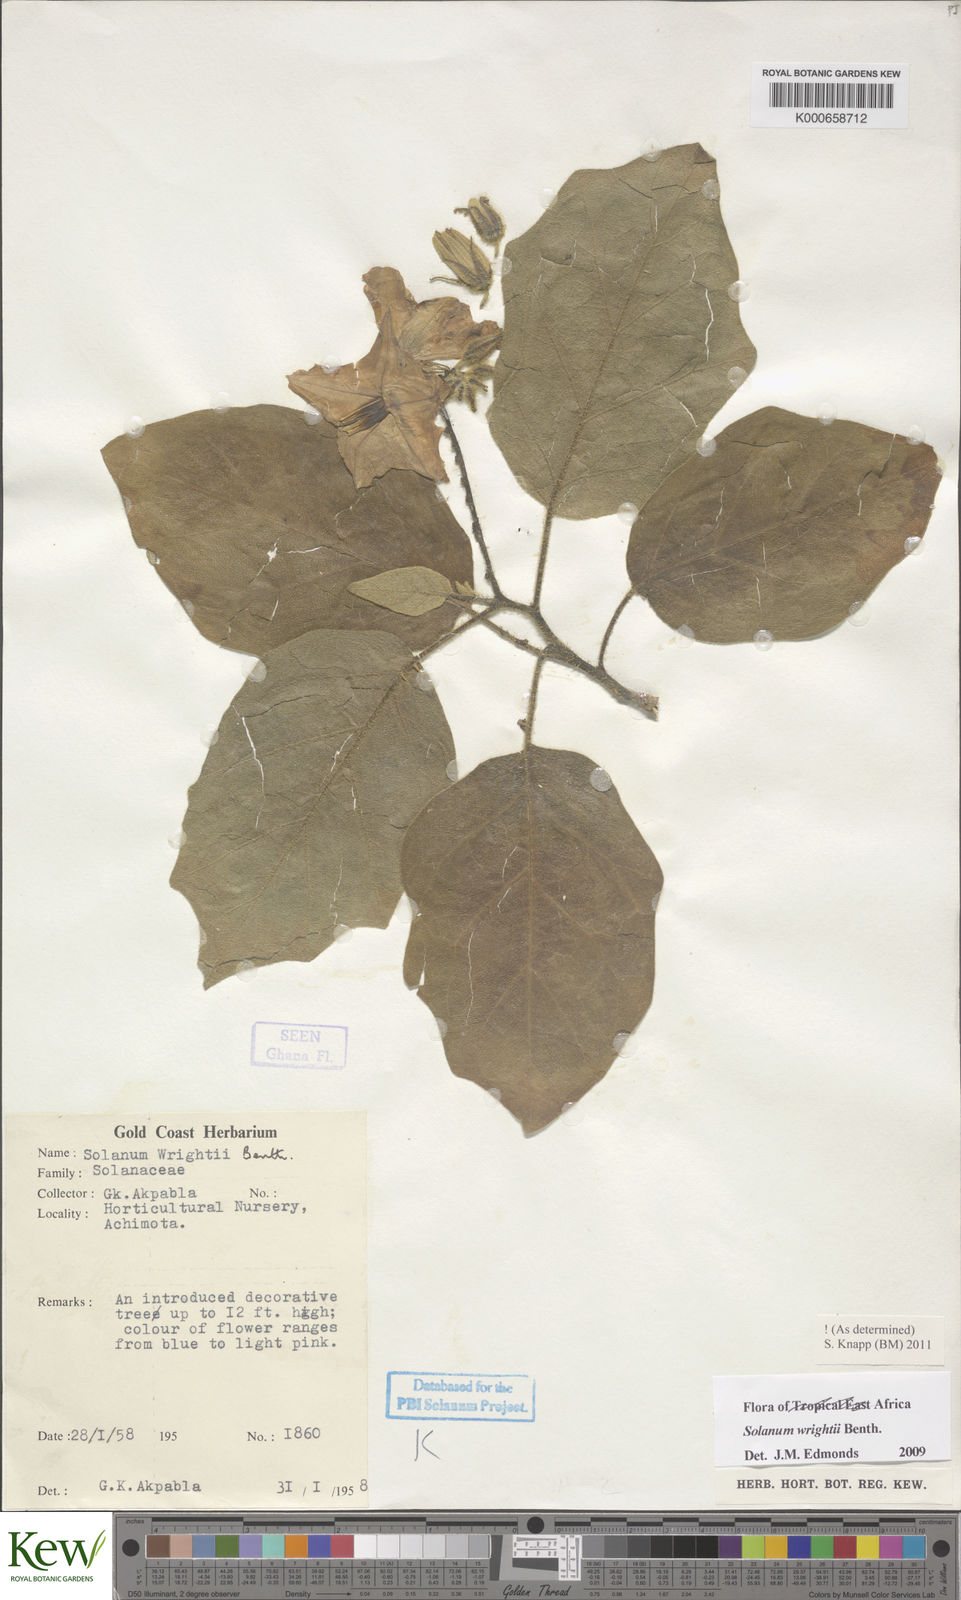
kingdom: Plantae
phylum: Tracheophyta
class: Magnoliopsida
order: Solanales
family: Solanaceae
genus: Solanum
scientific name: Solanum wrightii
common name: Brazilian potato-tree
